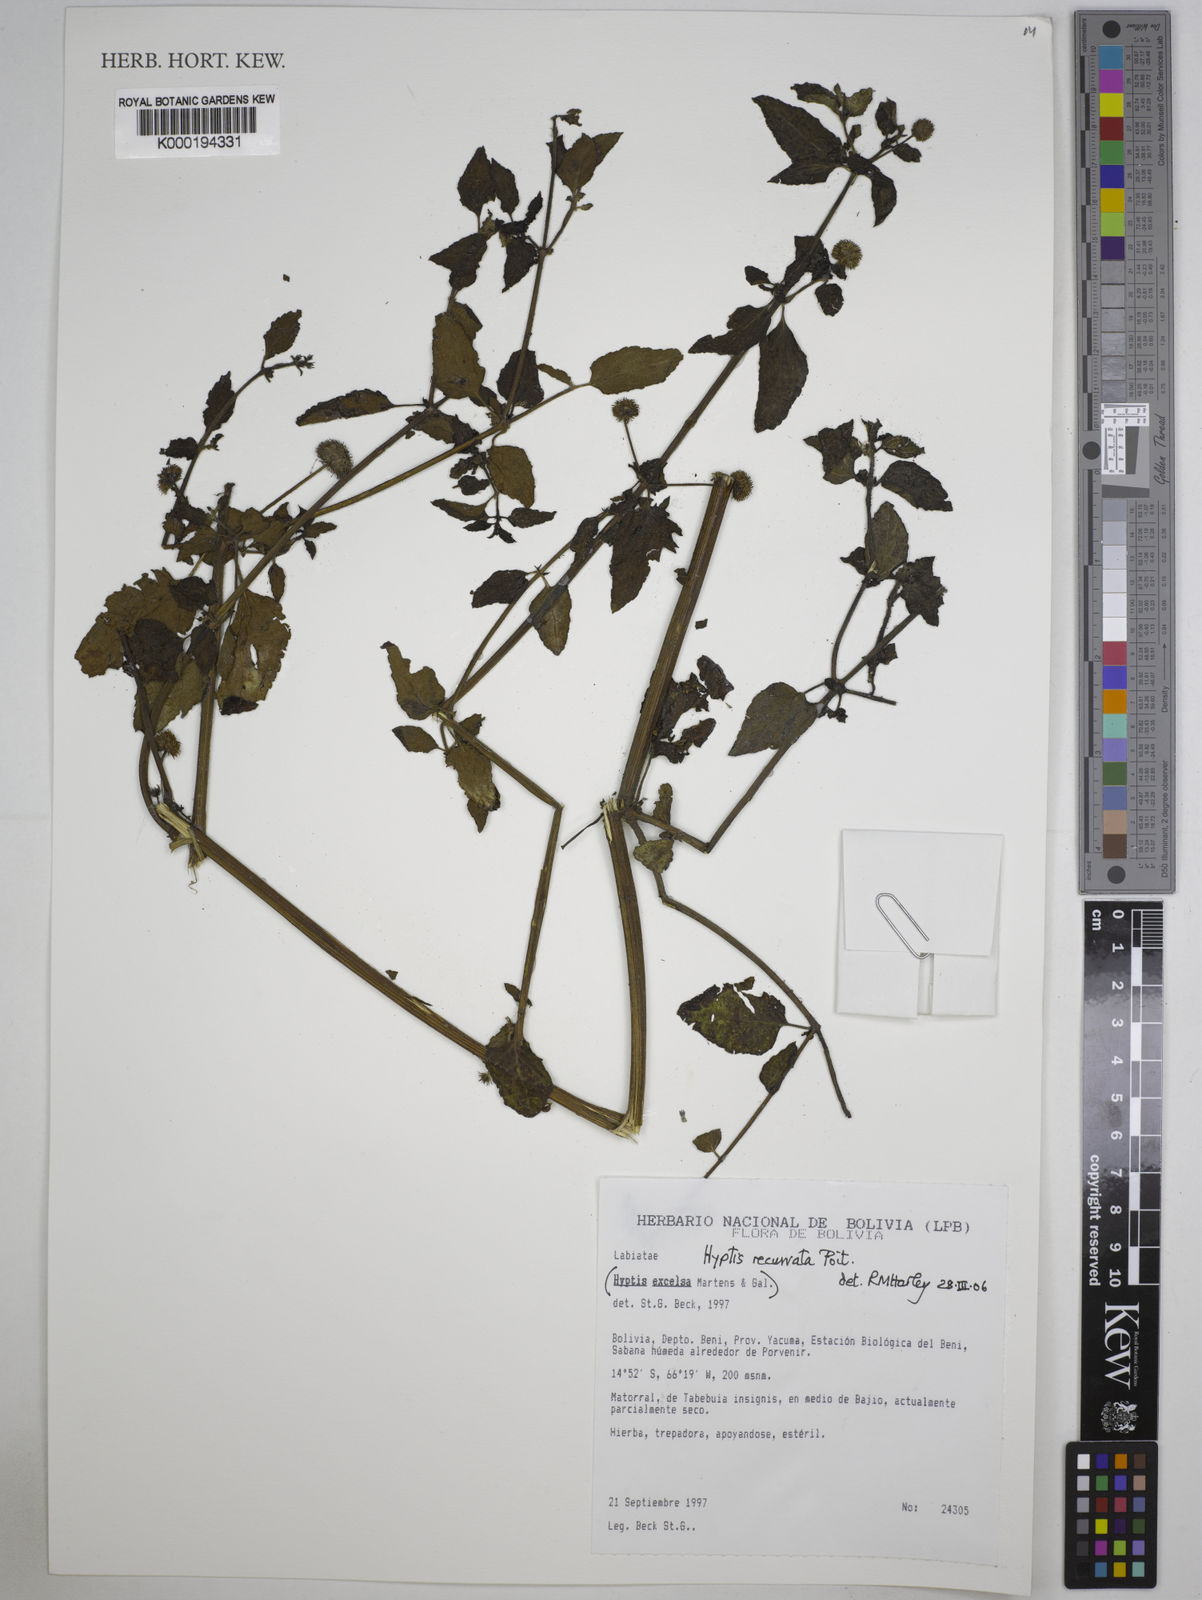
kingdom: Plantae
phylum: Tracheophyta
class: Magnoliopsida
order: Lamiales
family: Lamiaceae
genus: Hyptis
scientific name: Hyptis recurvata
